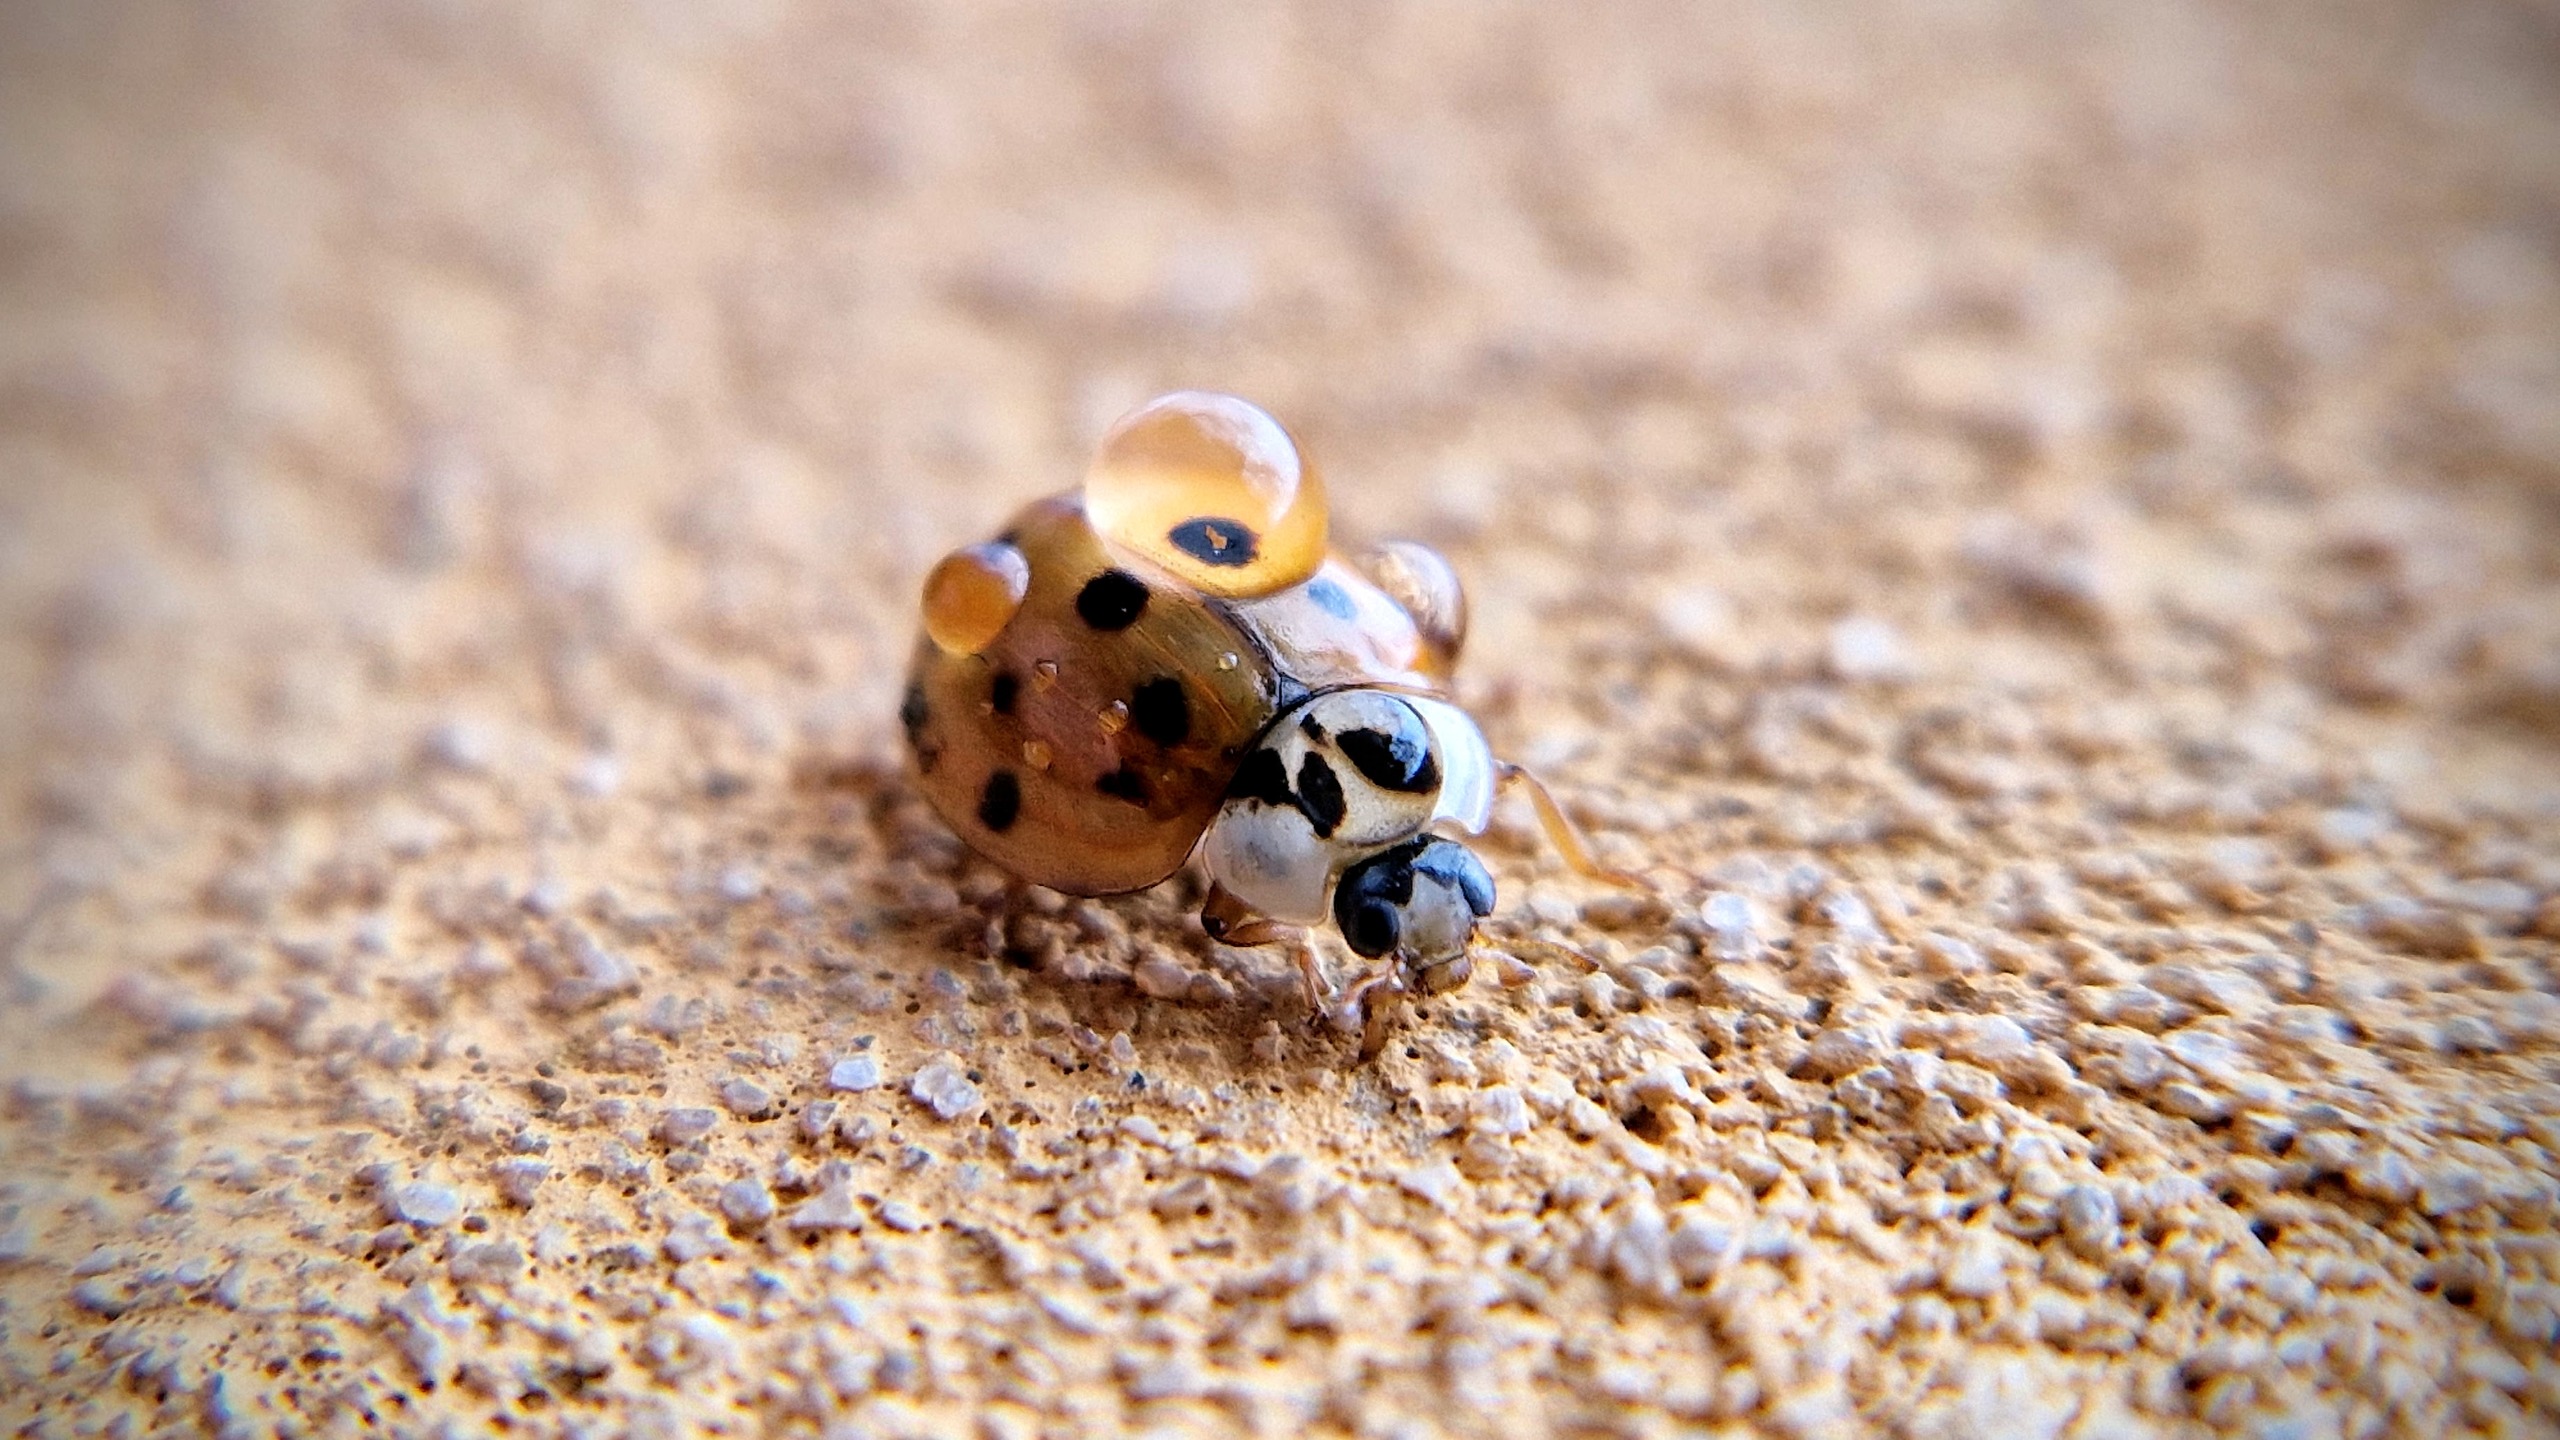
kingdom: Animalia
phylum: Arthropoda
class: Insecta
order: Coleoptera
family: Coccinellidae
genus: Harmonia
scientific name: Harmonia axyridis
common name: Harlekinmariehøne
